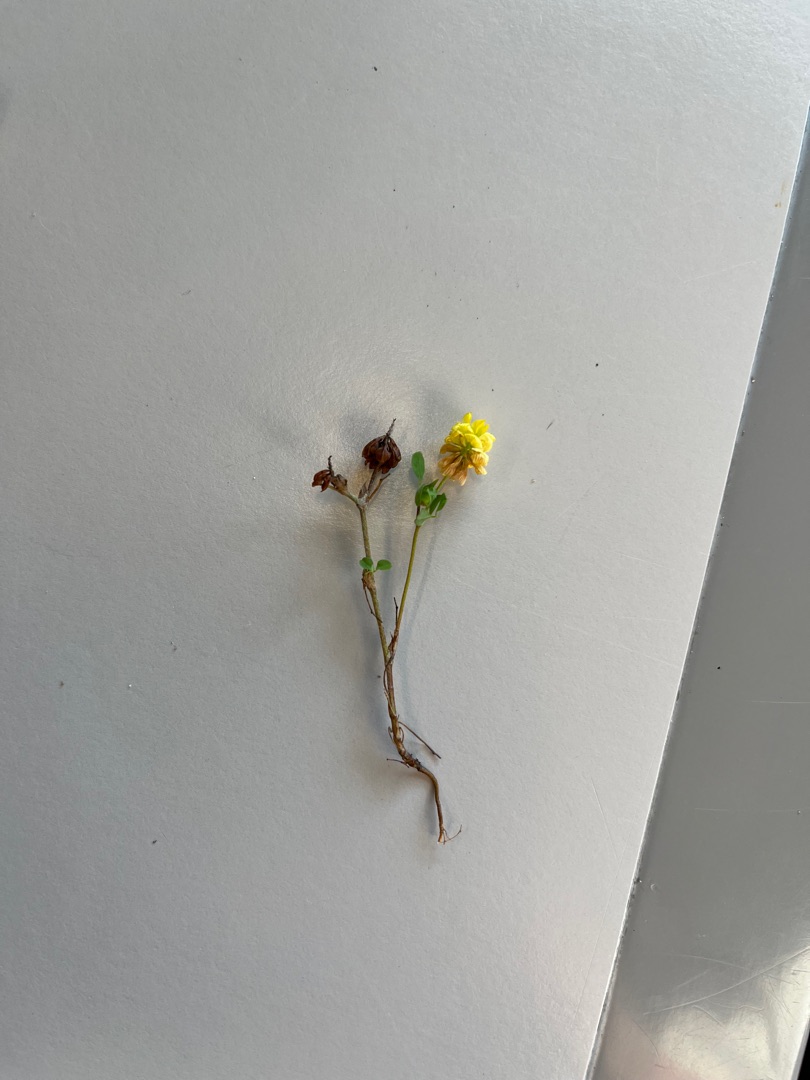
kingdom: Plantae
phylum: Tracheophyta
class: Magnoliopsida
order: Fabales
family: Fabaceae
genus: Trifolium
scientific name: Trifolium campestre
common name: Gul kløver
